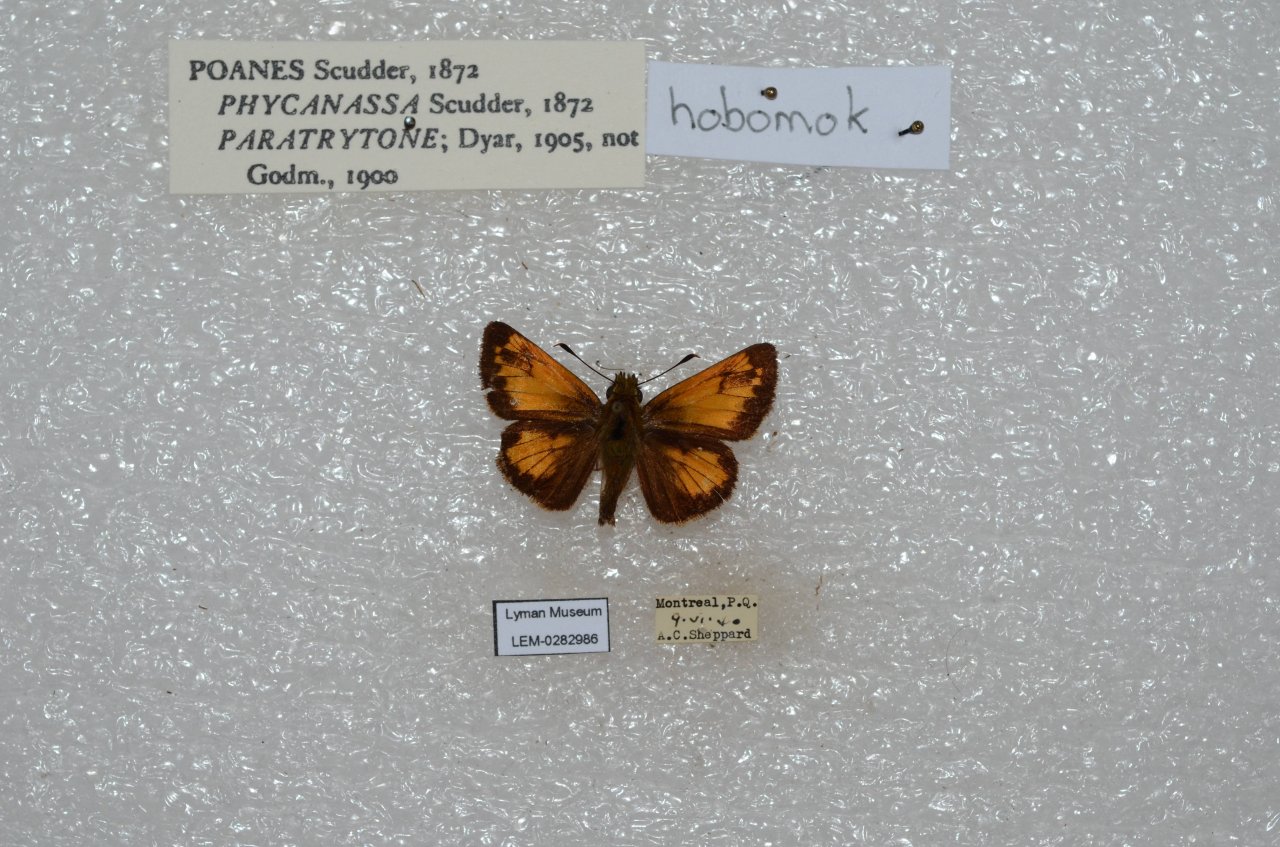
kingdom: Animalia
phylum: Arthropoda
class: Insecta
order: Lepidoptera
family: Hesperiidae
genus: Lon
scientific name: Lon hobomok
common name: Hobomok Skipper
